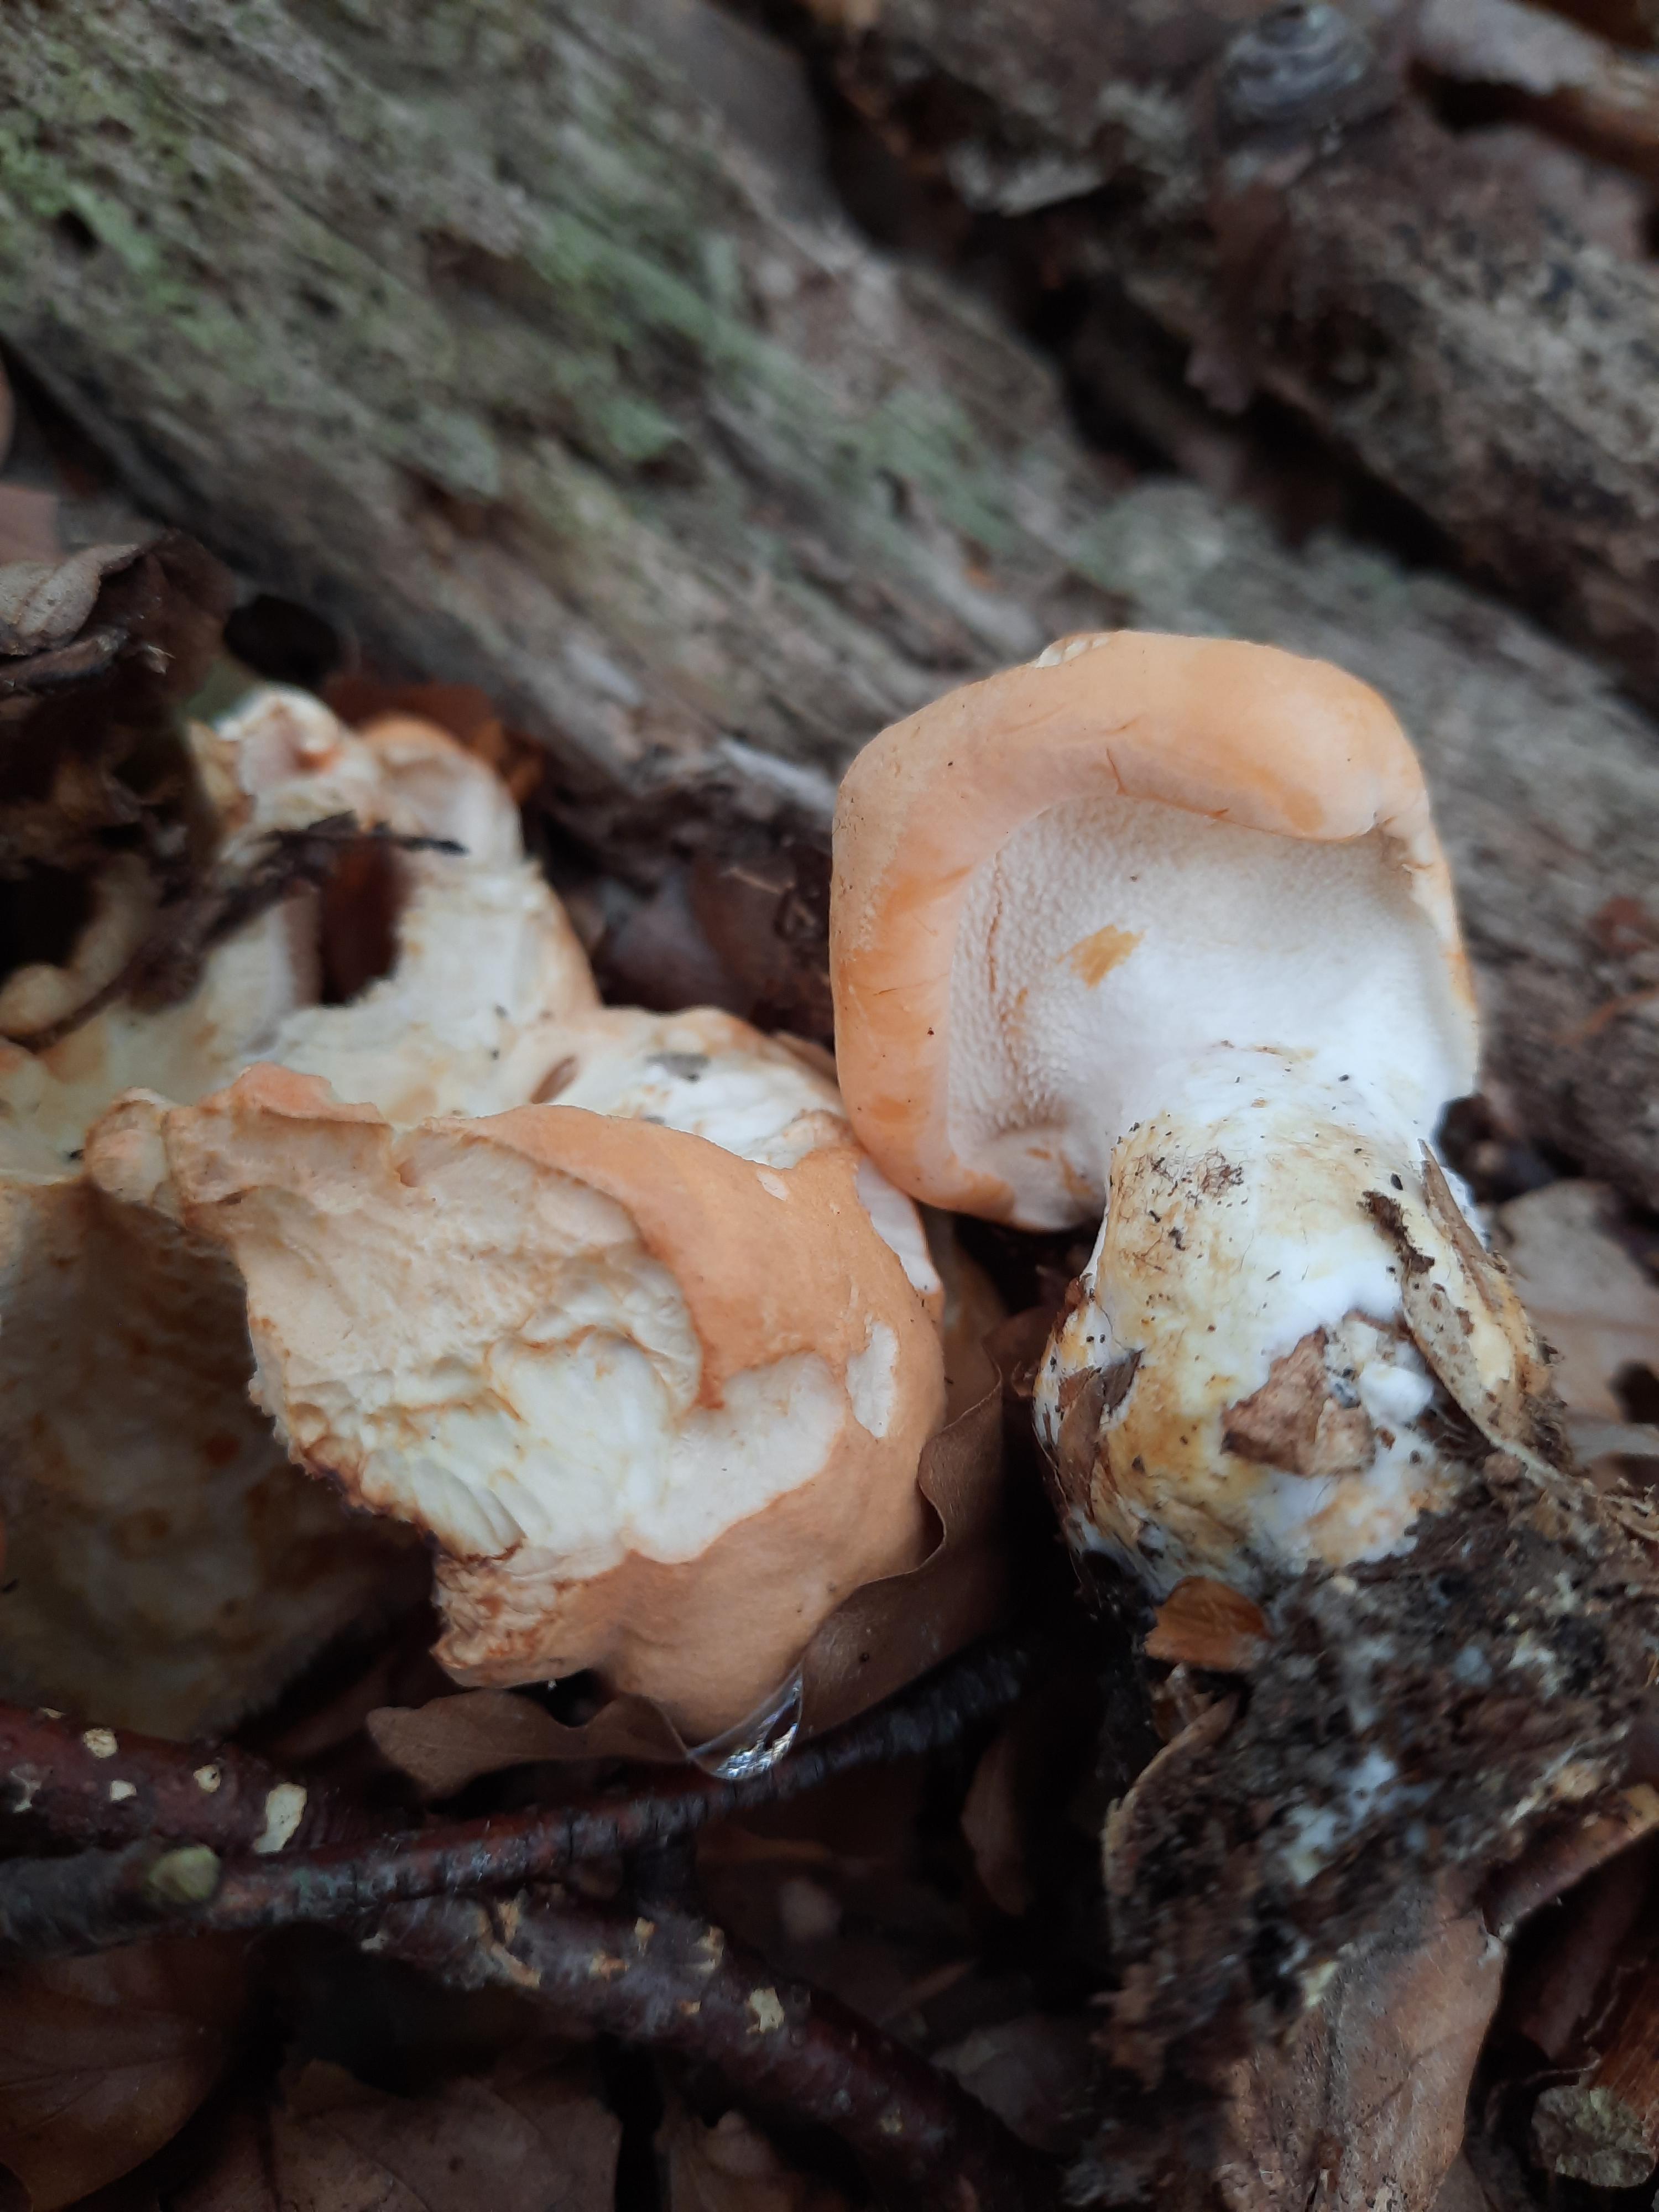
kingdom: Fungi
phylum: Basidiomycota
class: Agaricomycetes
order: Cantharellales
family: Hydnaceae
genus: Hydnum
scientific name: Hydnum repandum
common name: almindelig pigsvamp
